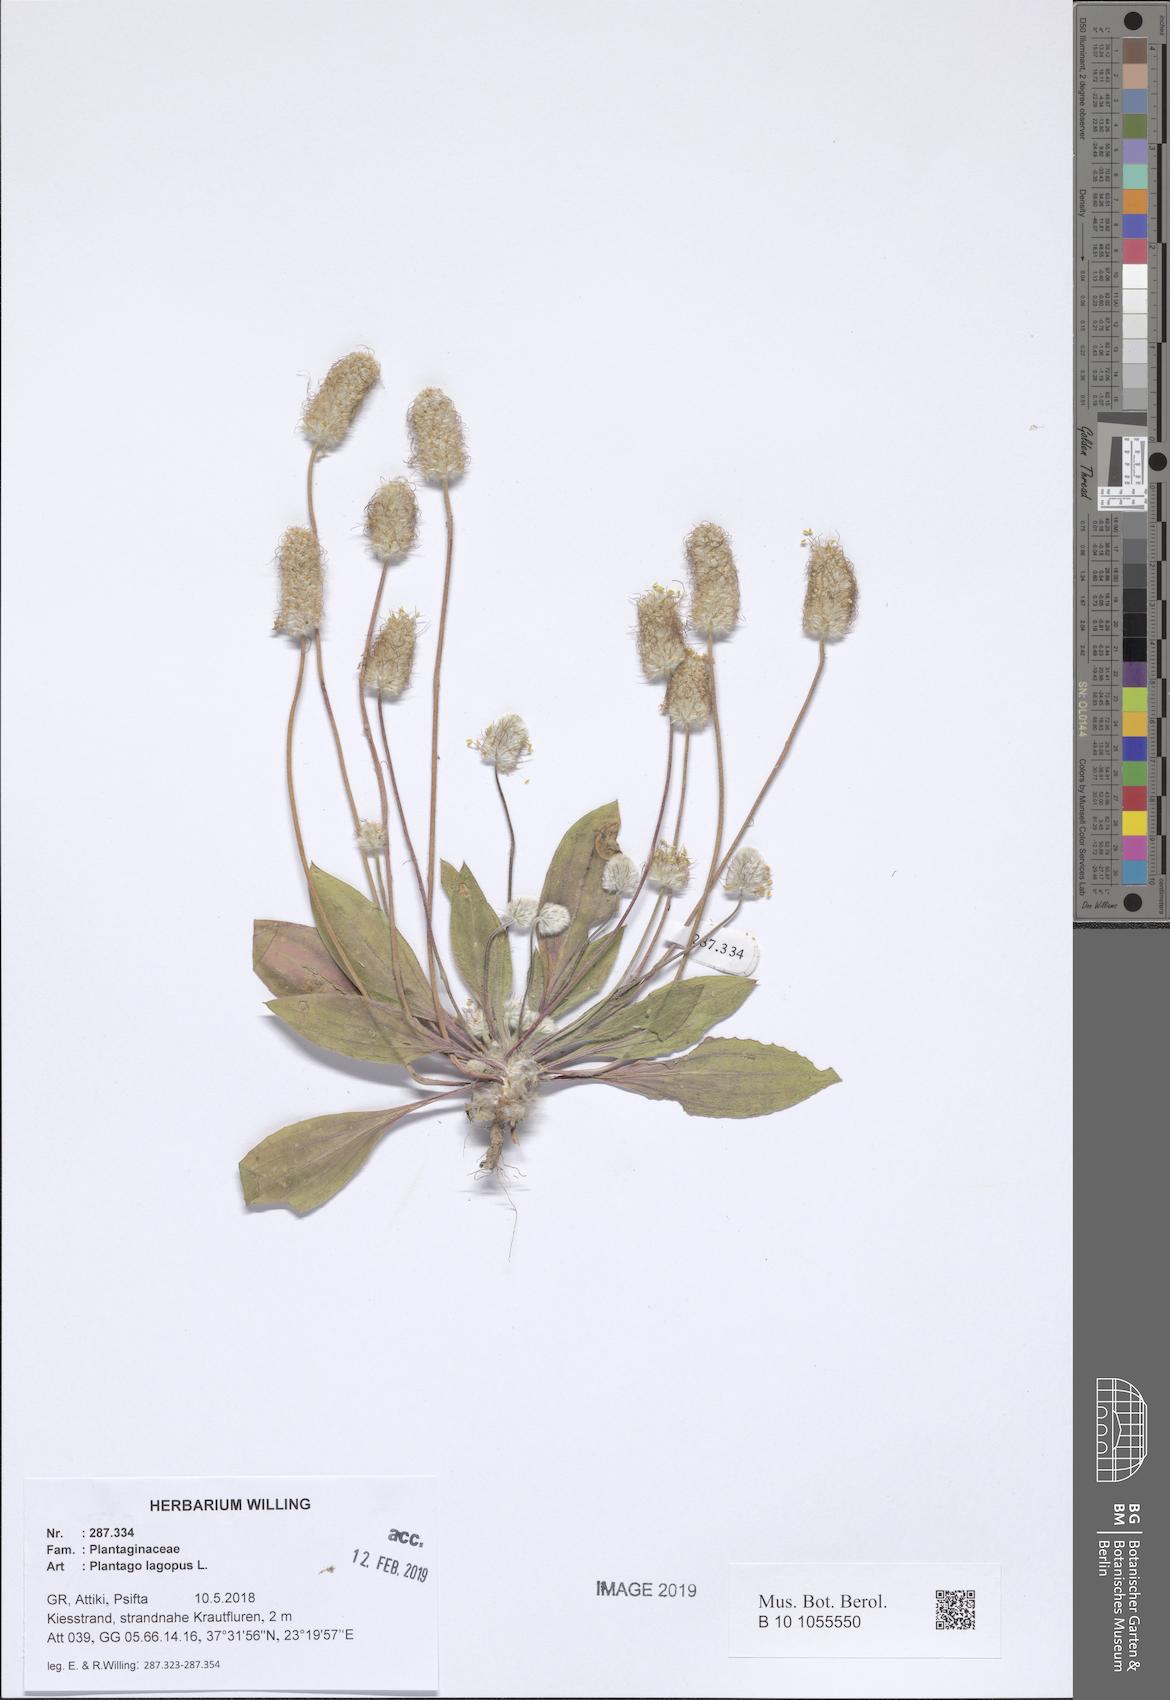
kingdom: Plantae
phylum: Tracheophyta
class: Magnoliopsida
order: Lamiales
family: Plantaginaceae
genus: Plantago
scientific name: Plantago lagopus
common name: Hare-foot plantain
